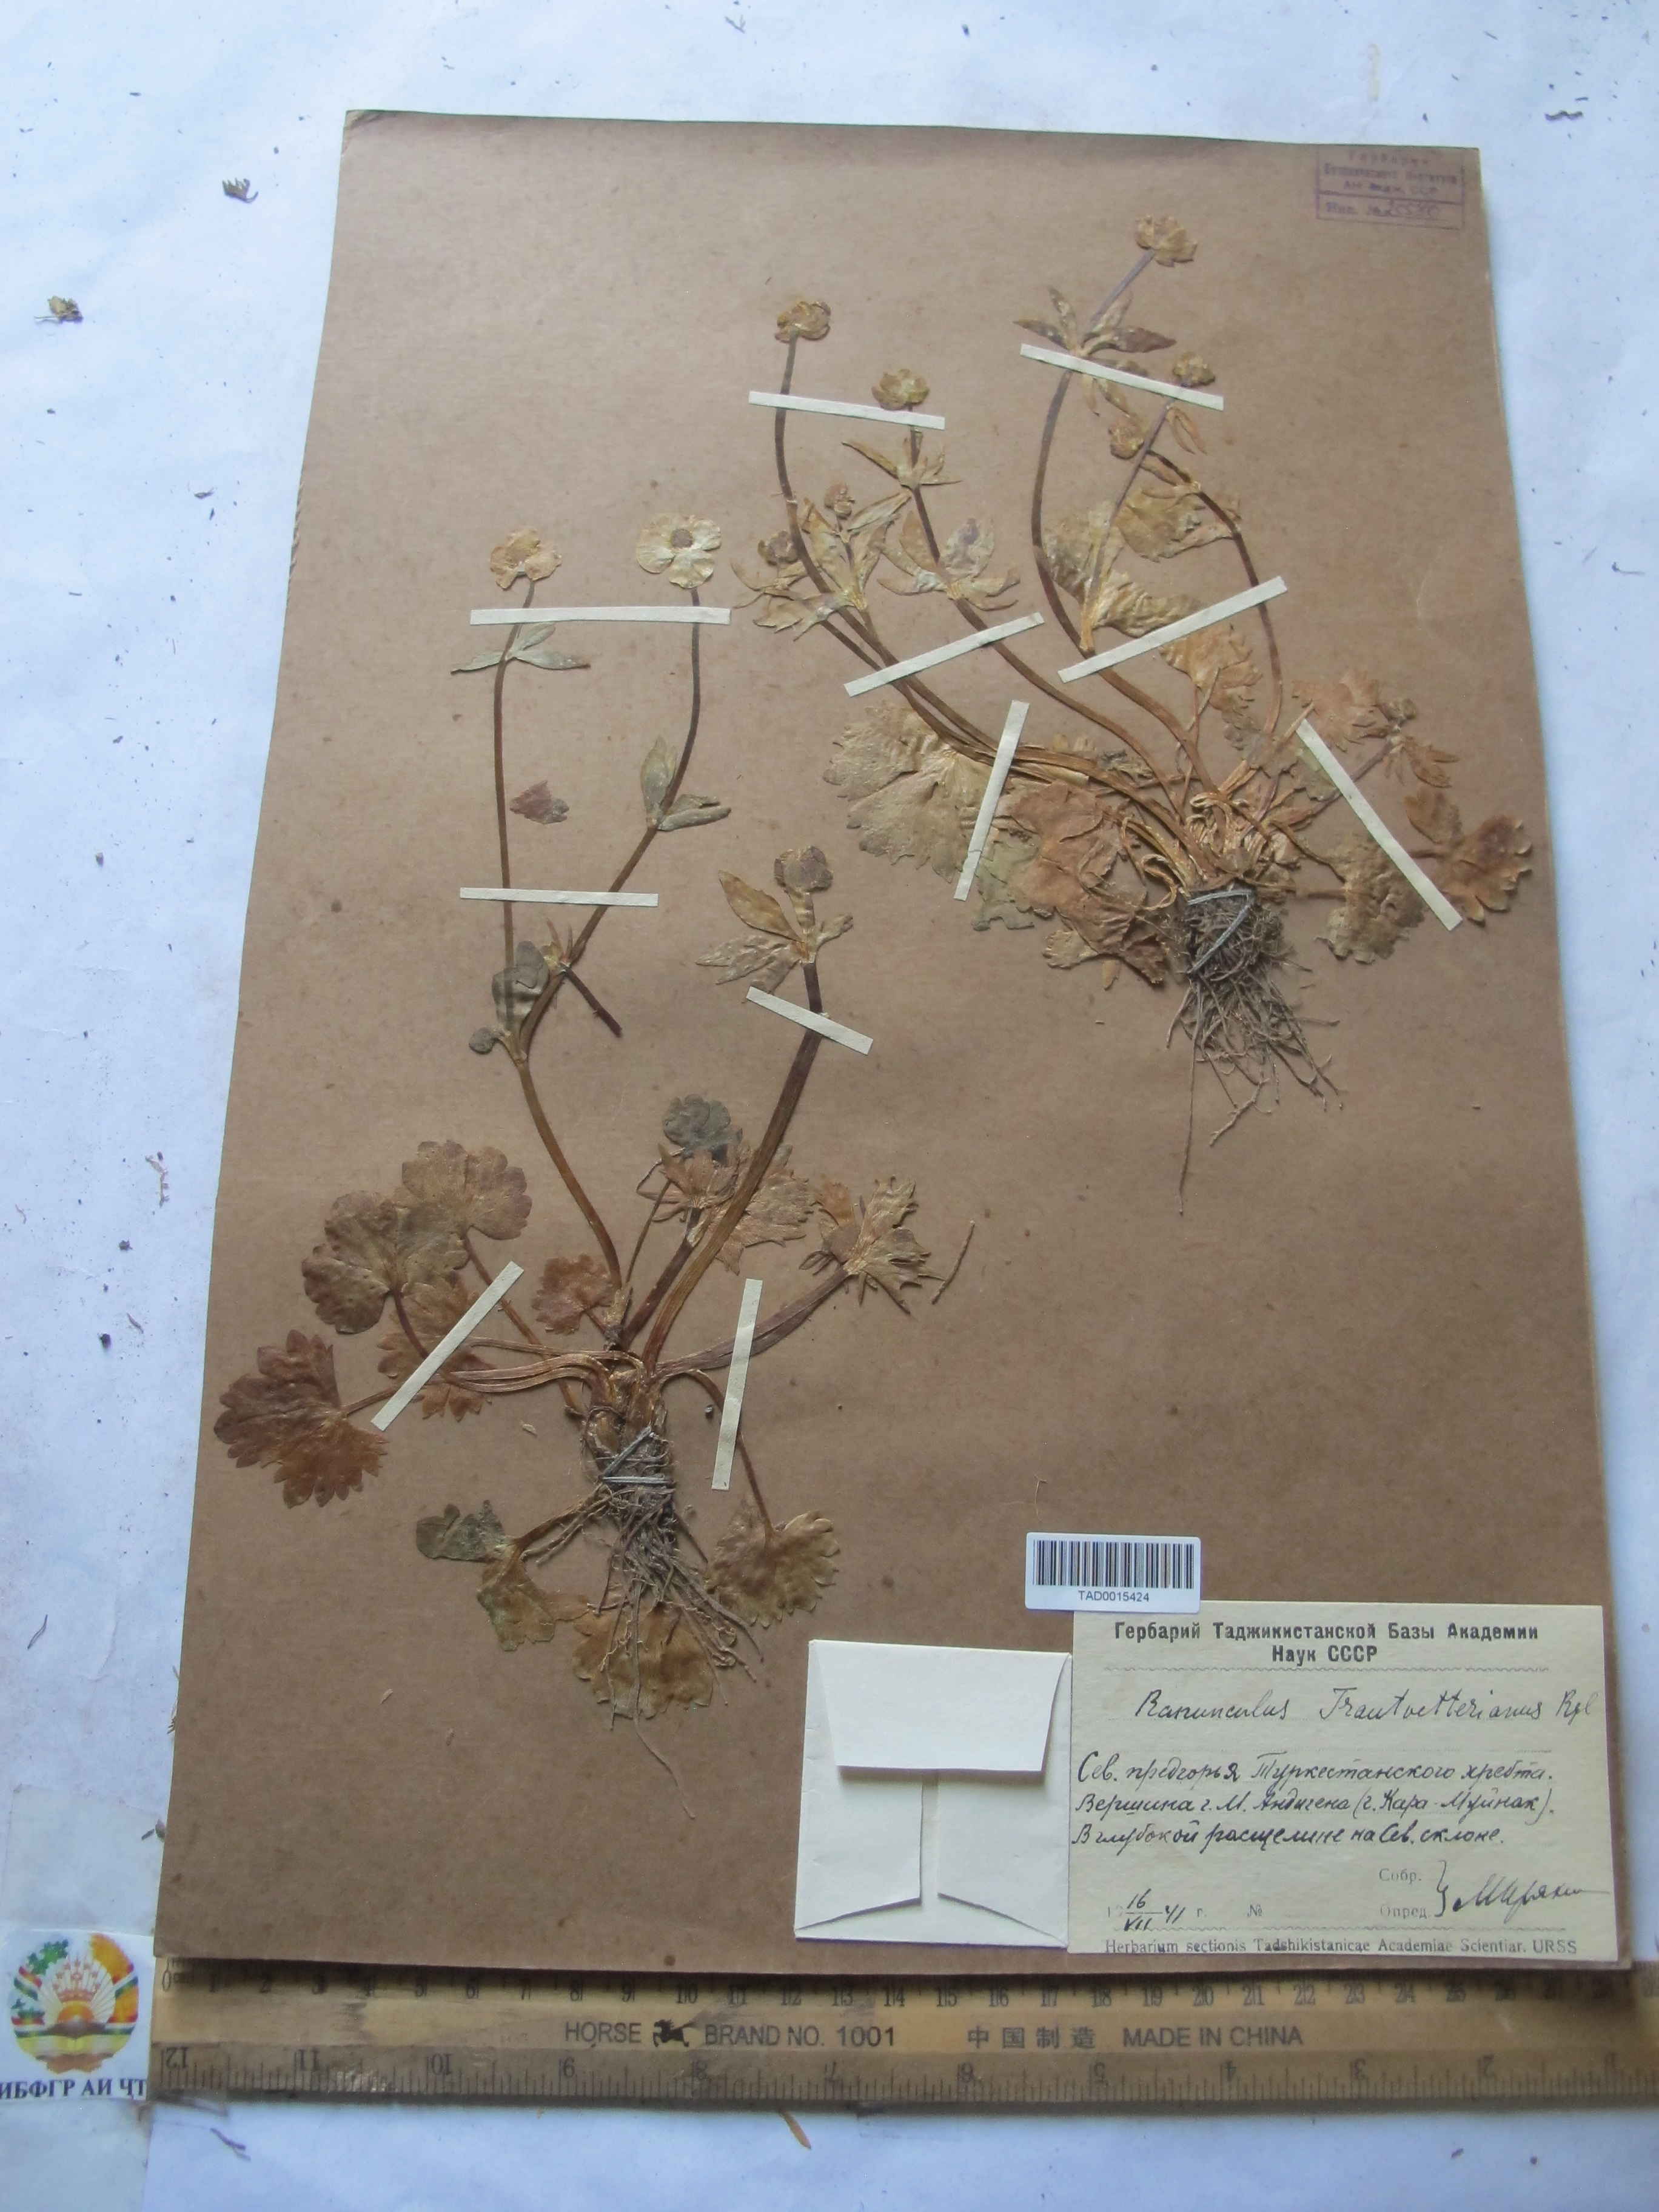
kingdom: Plantae
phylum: Tracheophyta
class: Magnoliopsida
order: Ranunculales
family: Ranunculaceae
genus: Ranunculus
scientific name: Ranunculus songaricus
